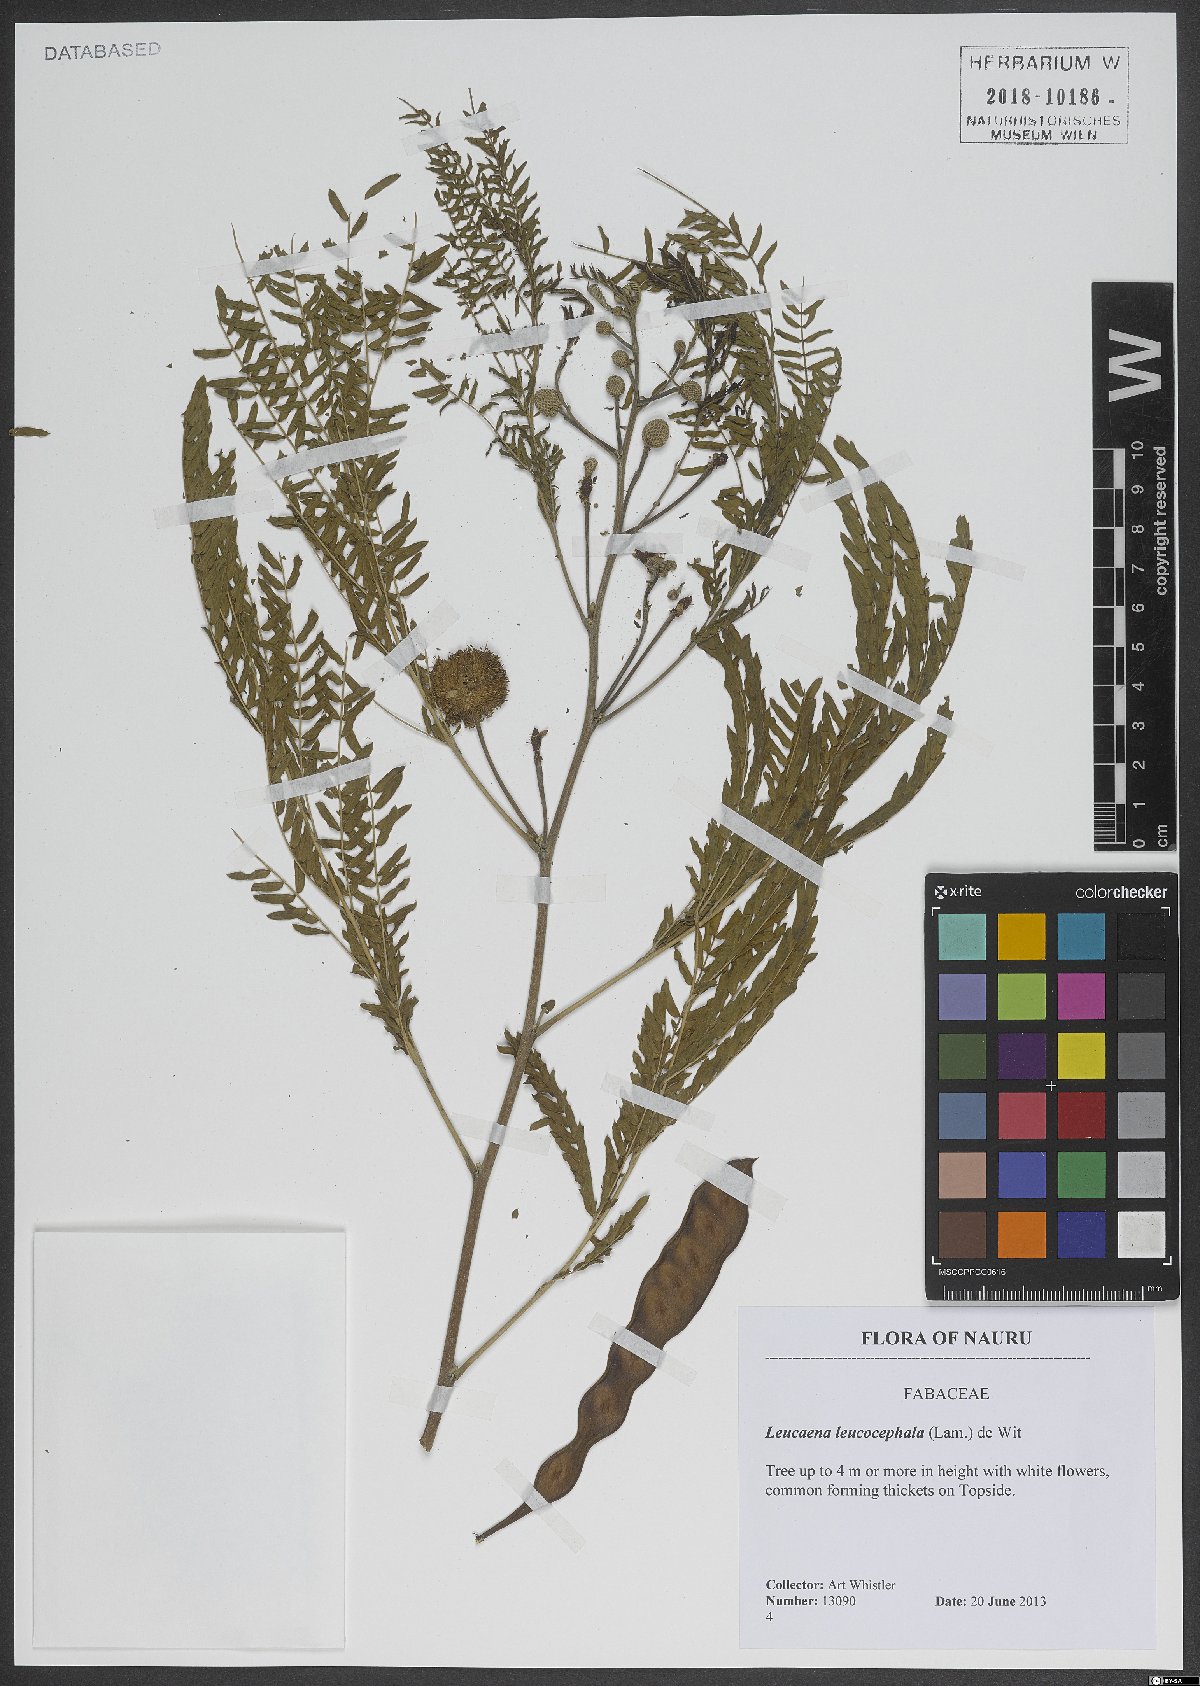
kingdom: Plantae
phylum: Tracheophyta
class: Magnoliopsida
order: Fabales
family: Fabaceae
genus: Leucaena
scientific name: Leucaena leucocephala
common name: White leadtree
